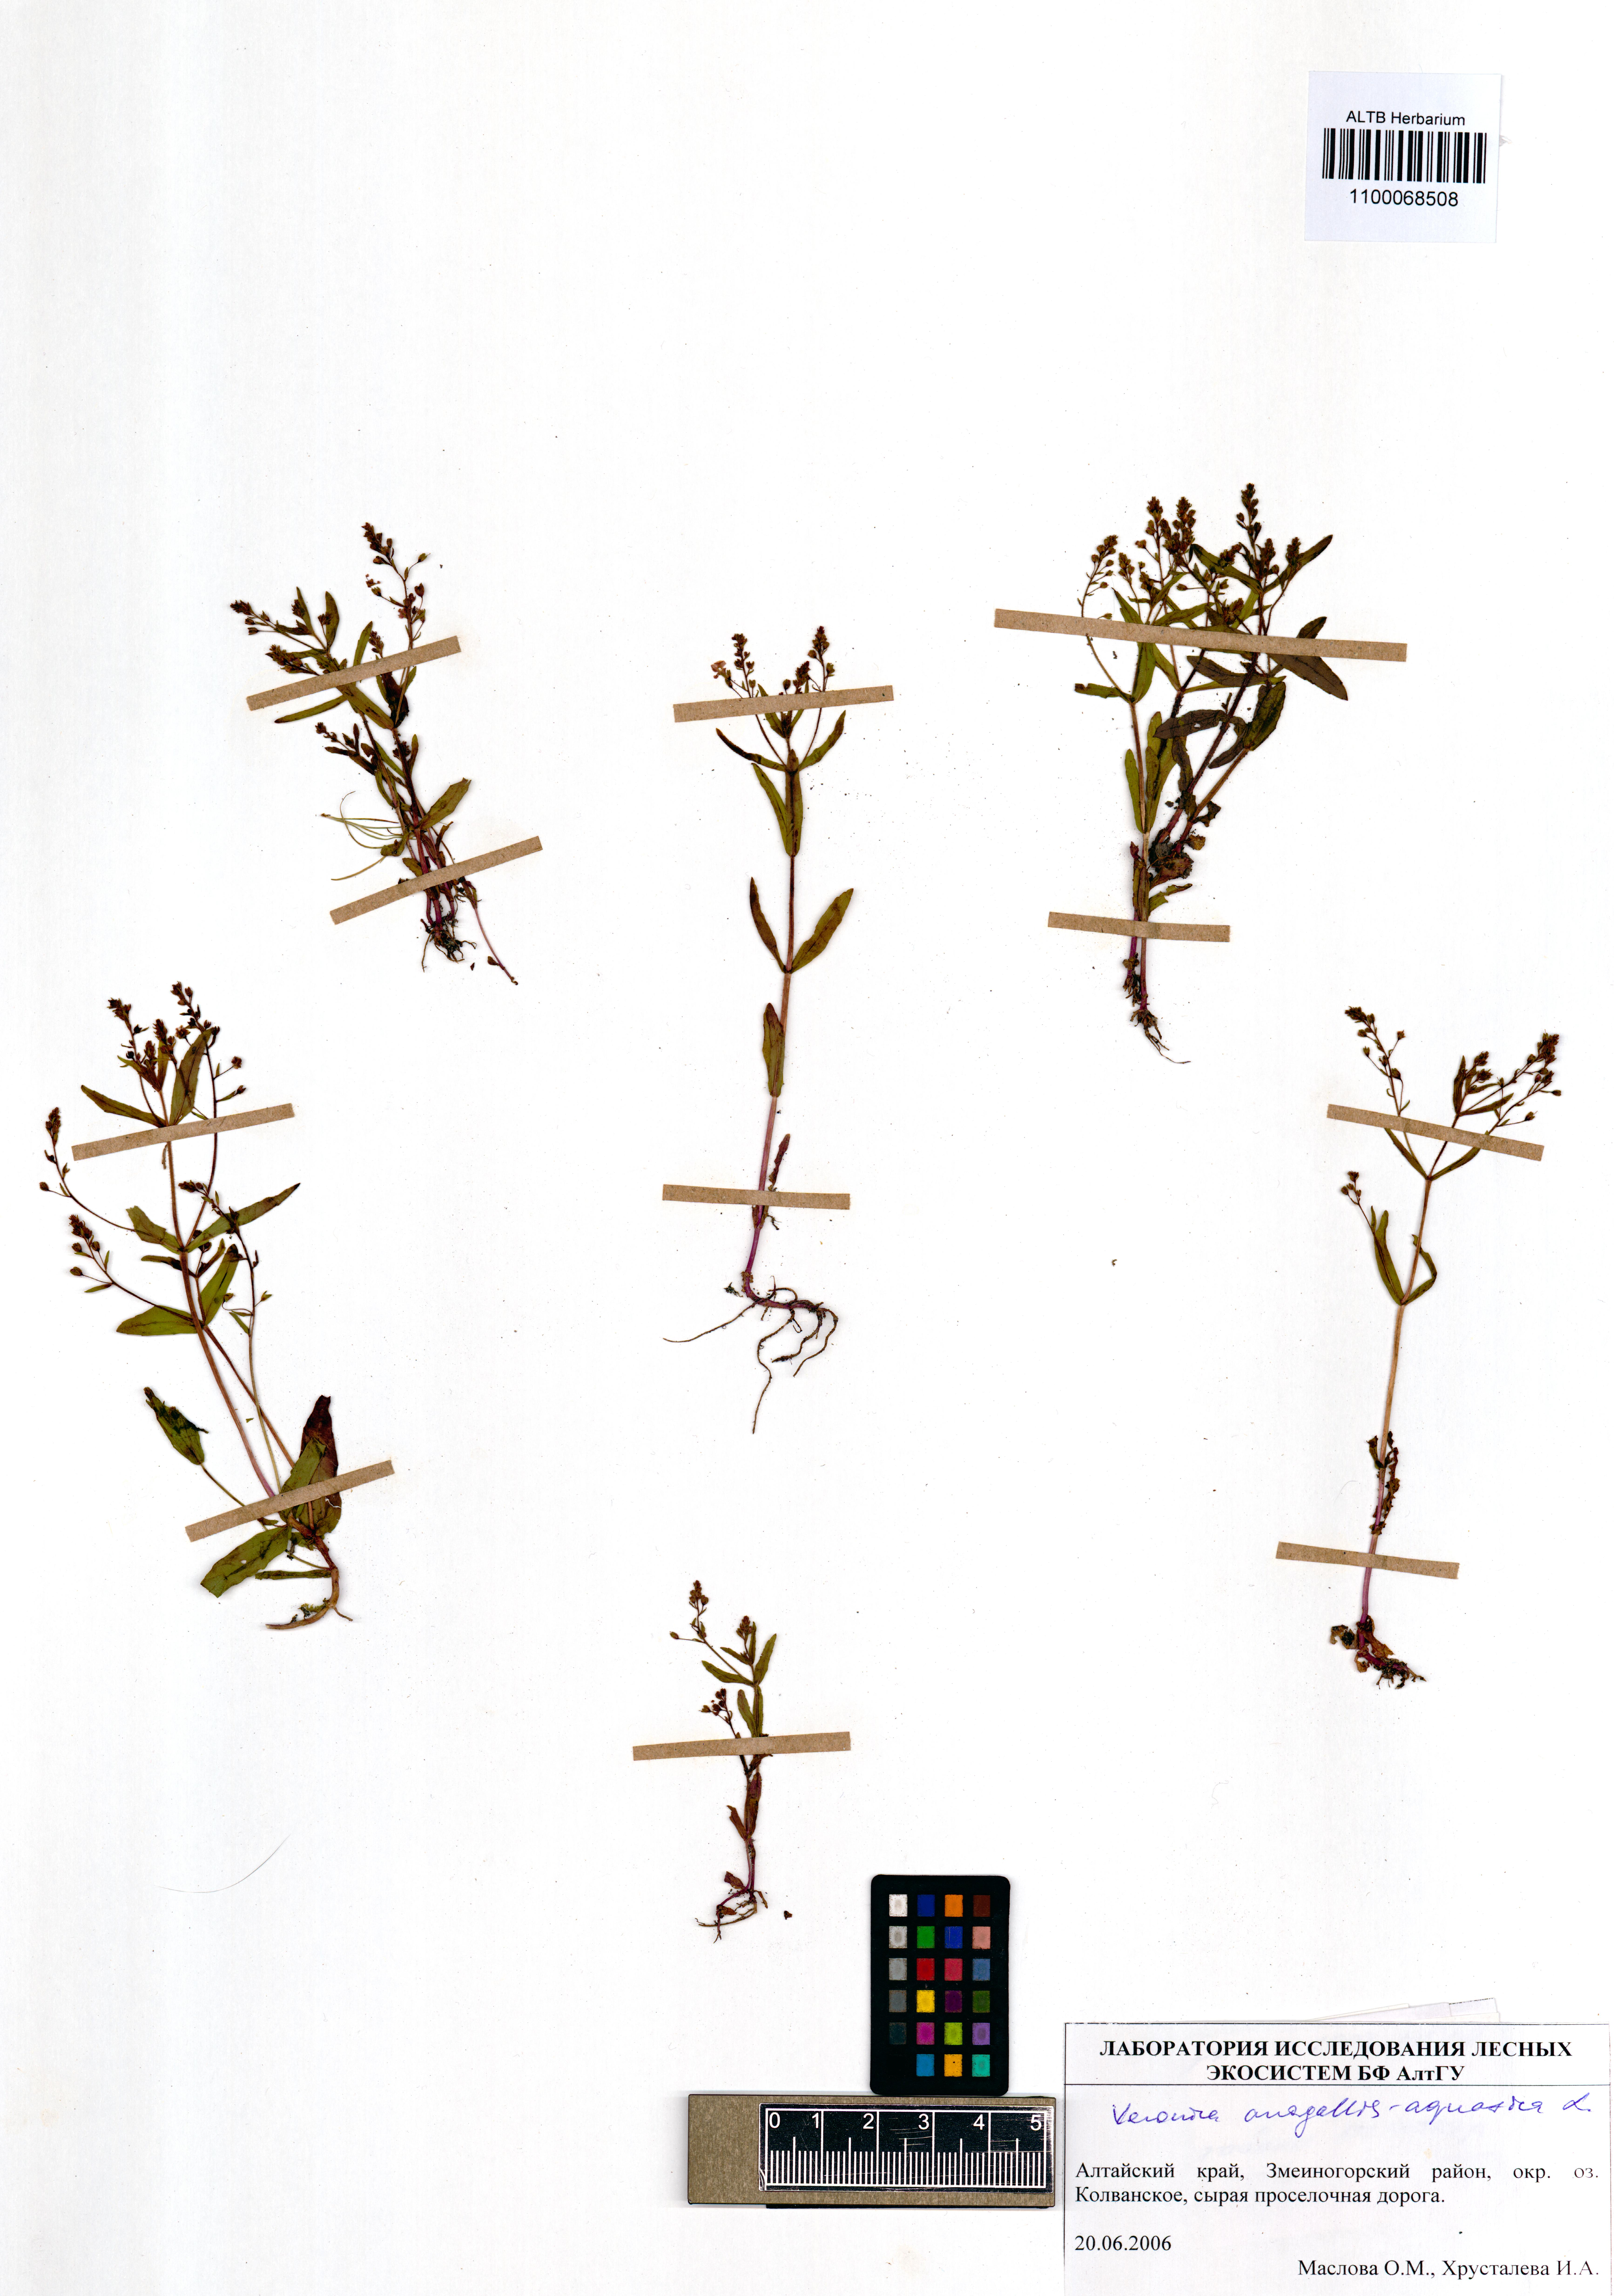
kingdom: Plantae
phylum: Tracheophyta
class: Magnoliopsida
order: Lamiales
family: Plantaginaceae
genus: Veronica
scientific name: Veronica anagallis-aquatica
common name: Water speedwell
